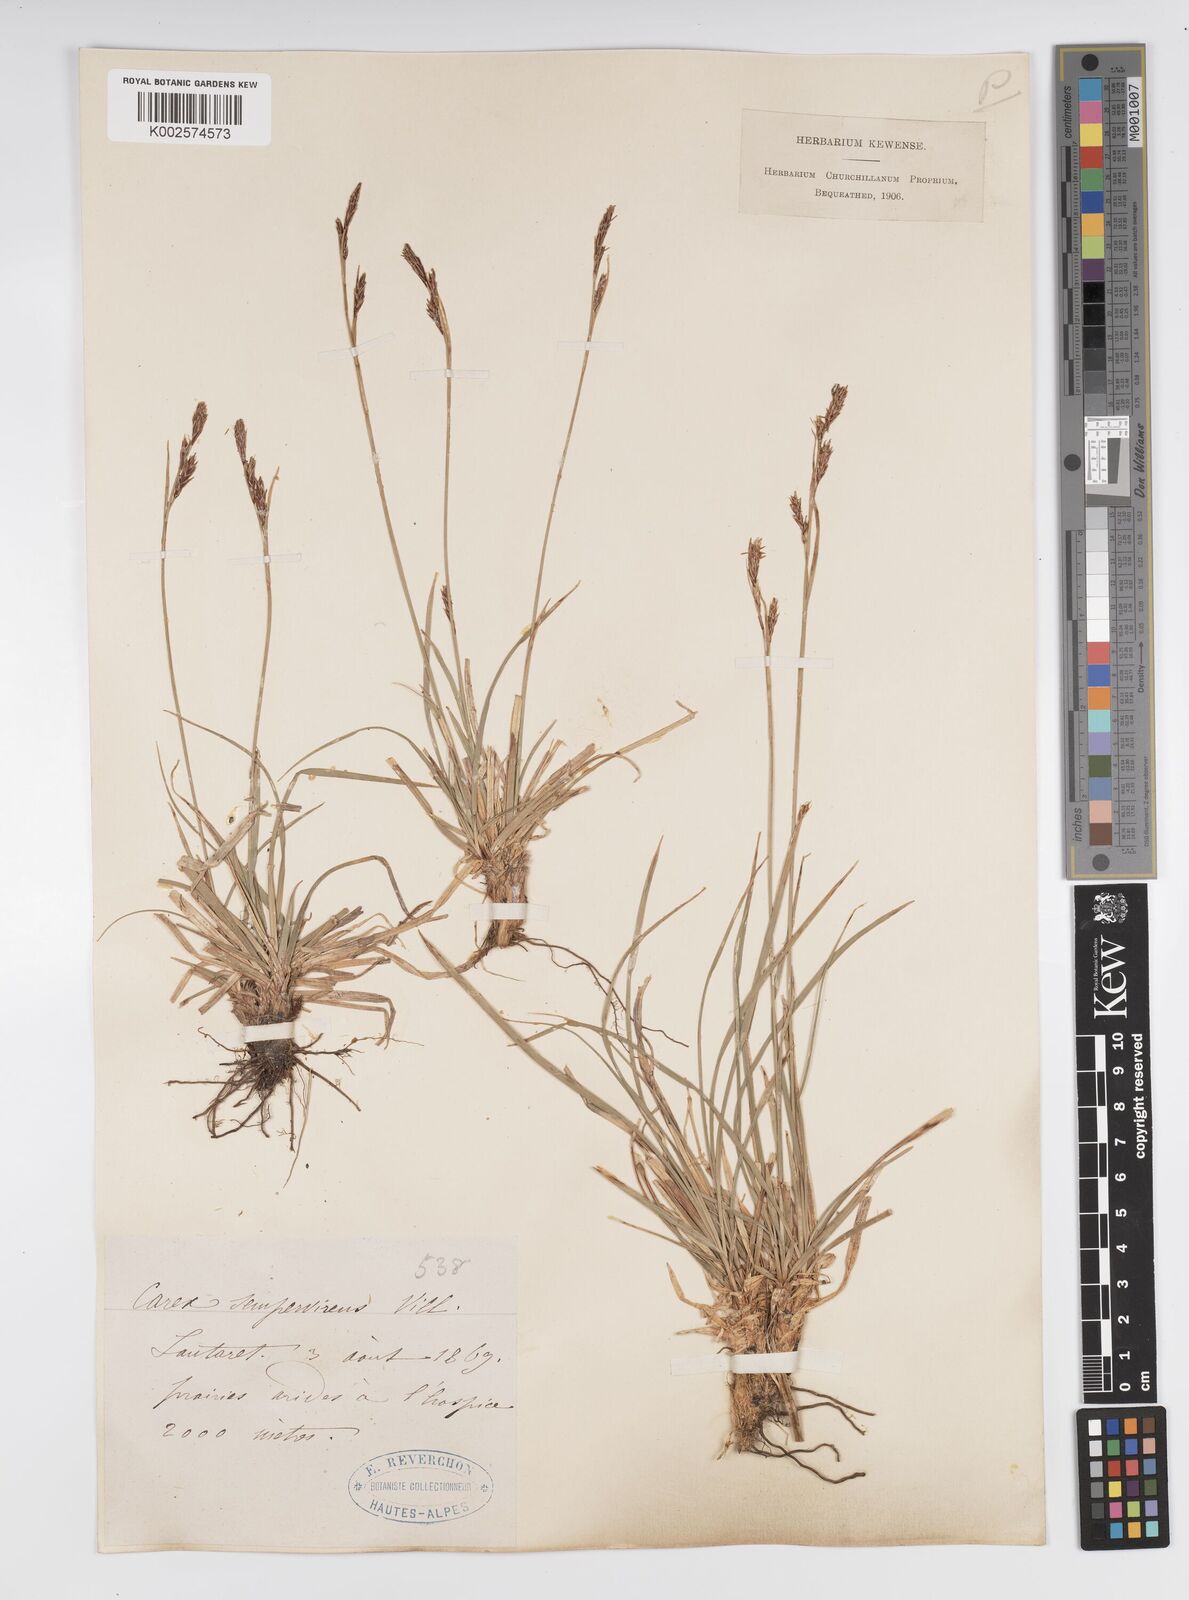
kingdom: Plantae
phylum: Tracheophyta
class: Liliopsida
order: Poales
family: Cyperaceae
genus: Carex
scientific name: Carex sempervirens
